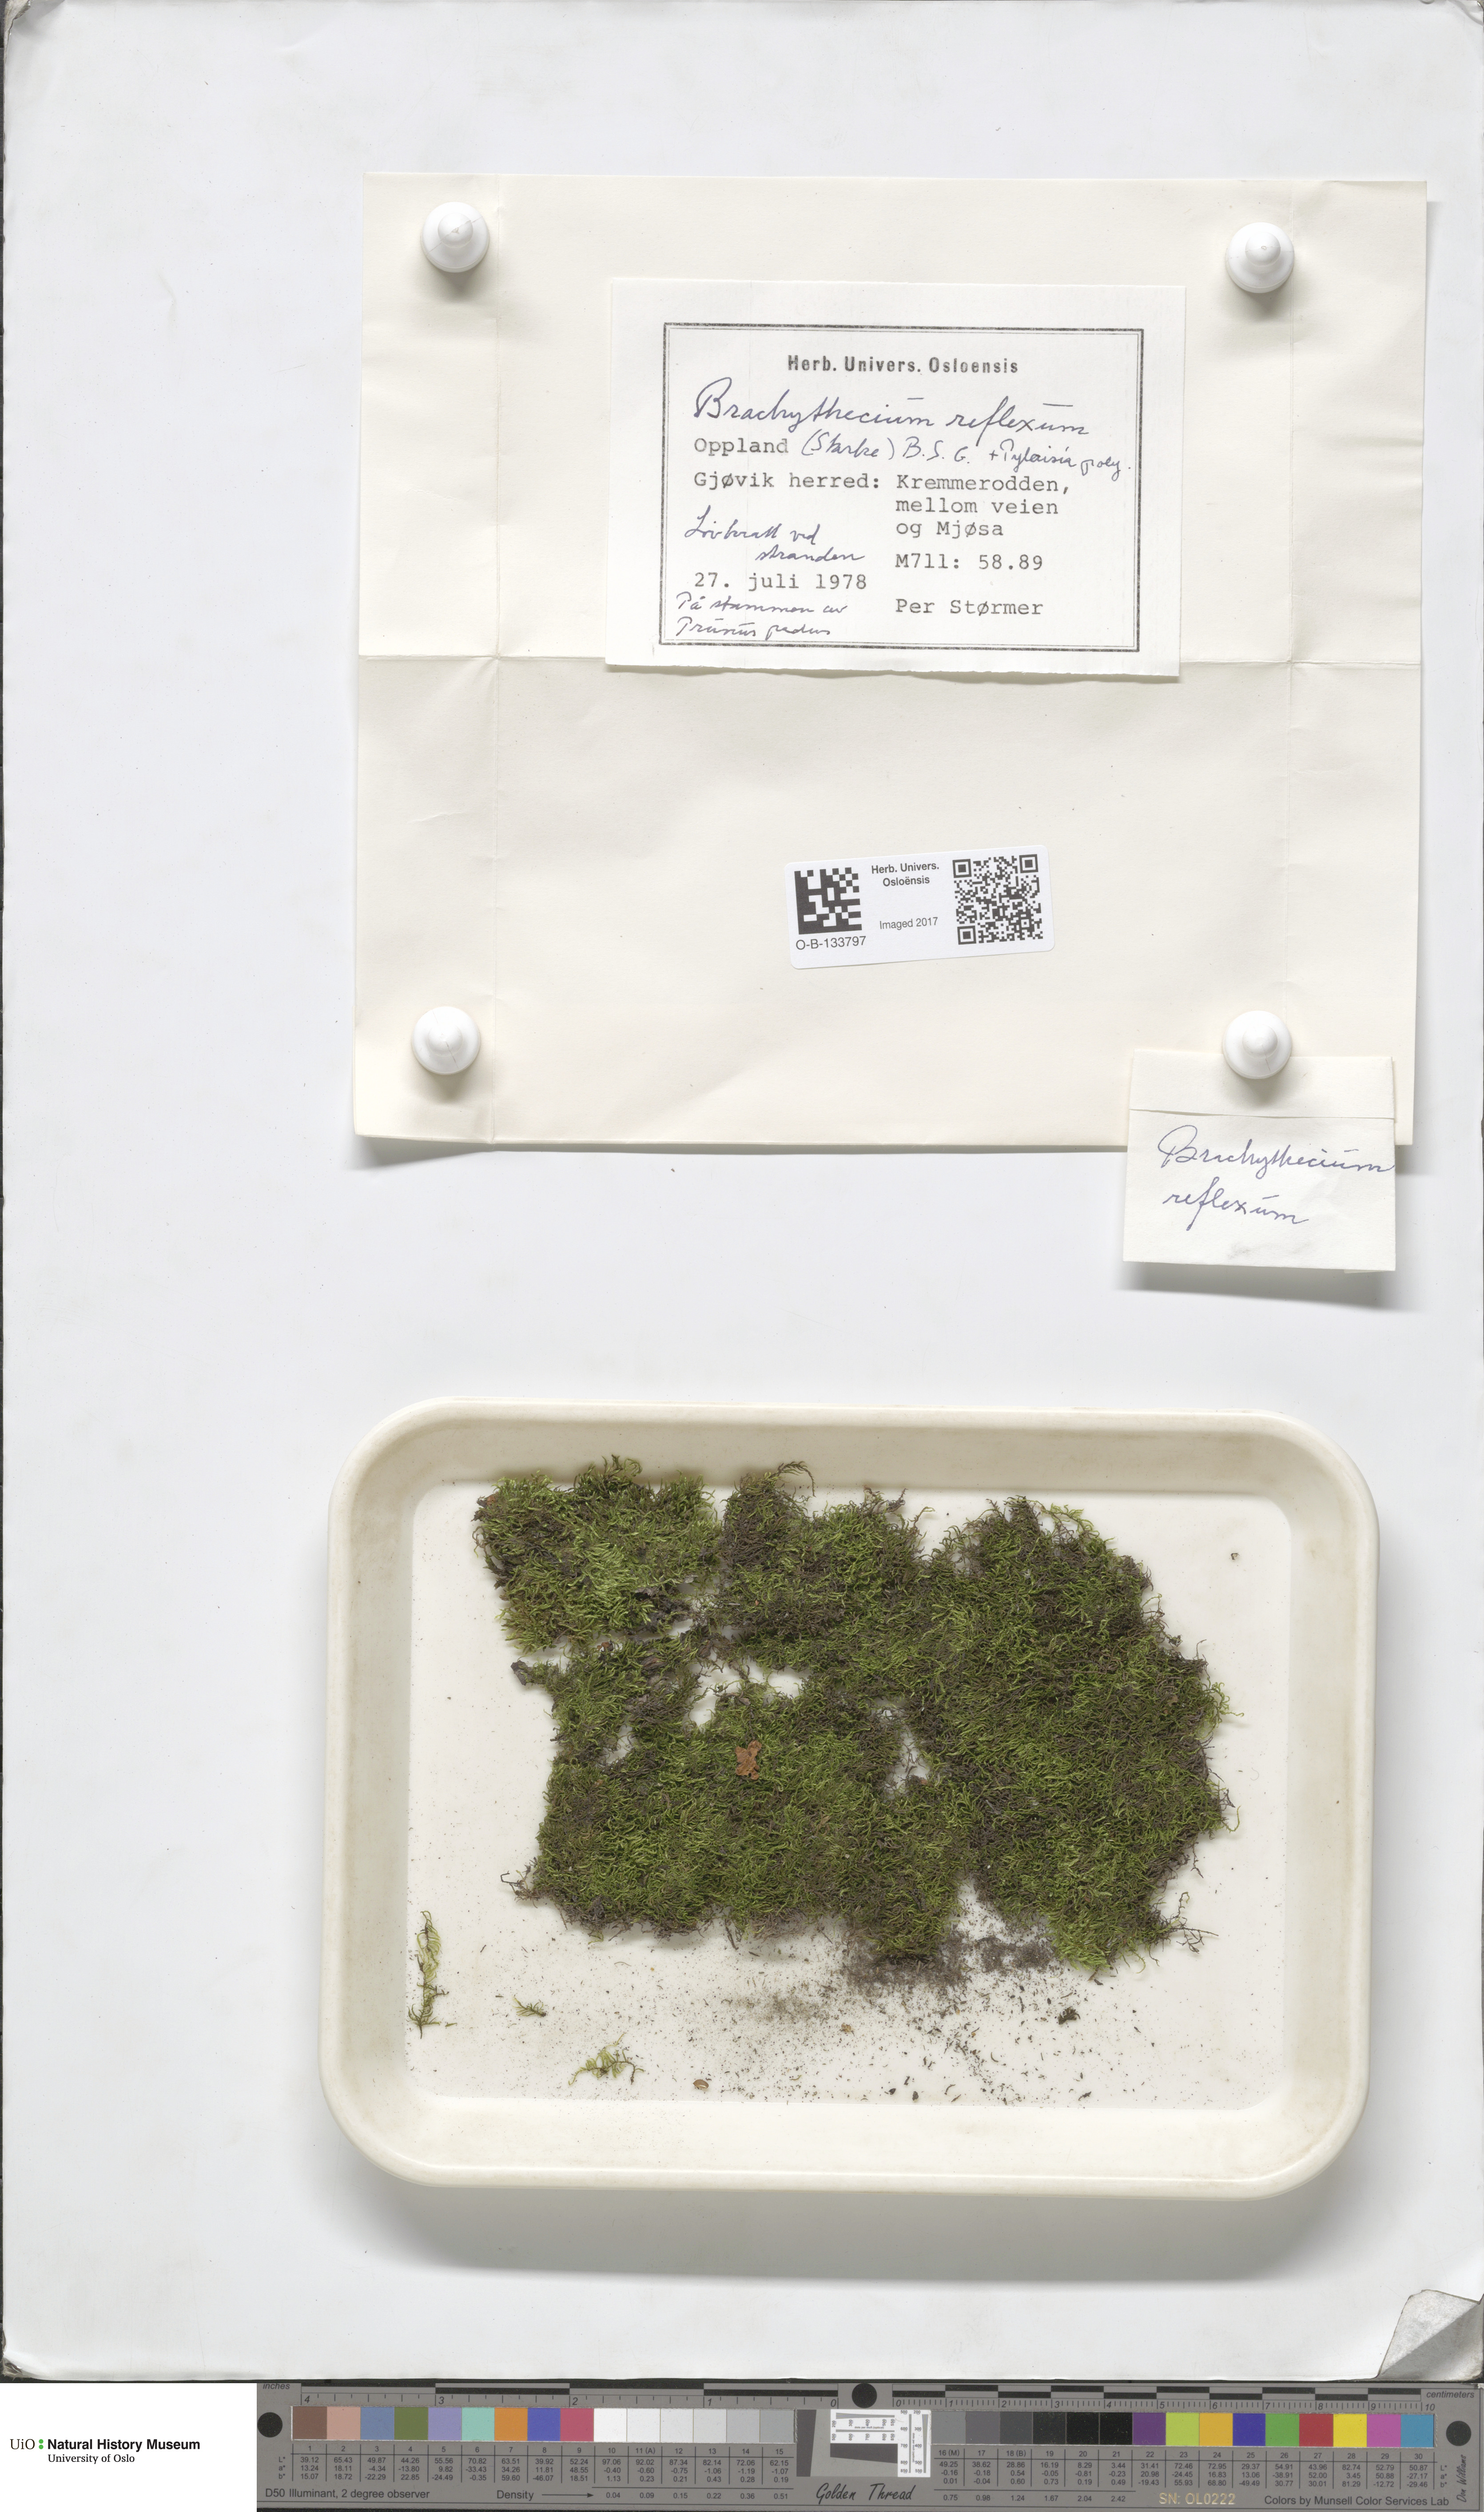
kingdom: Plantae
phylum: Bryophyta
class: Bryopsida
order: Hypnales
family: Brachytheciaceae
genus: Sciuro-hypnum
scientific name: Sciuro-hypnum reflexum
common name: Reflexed feather-moss
